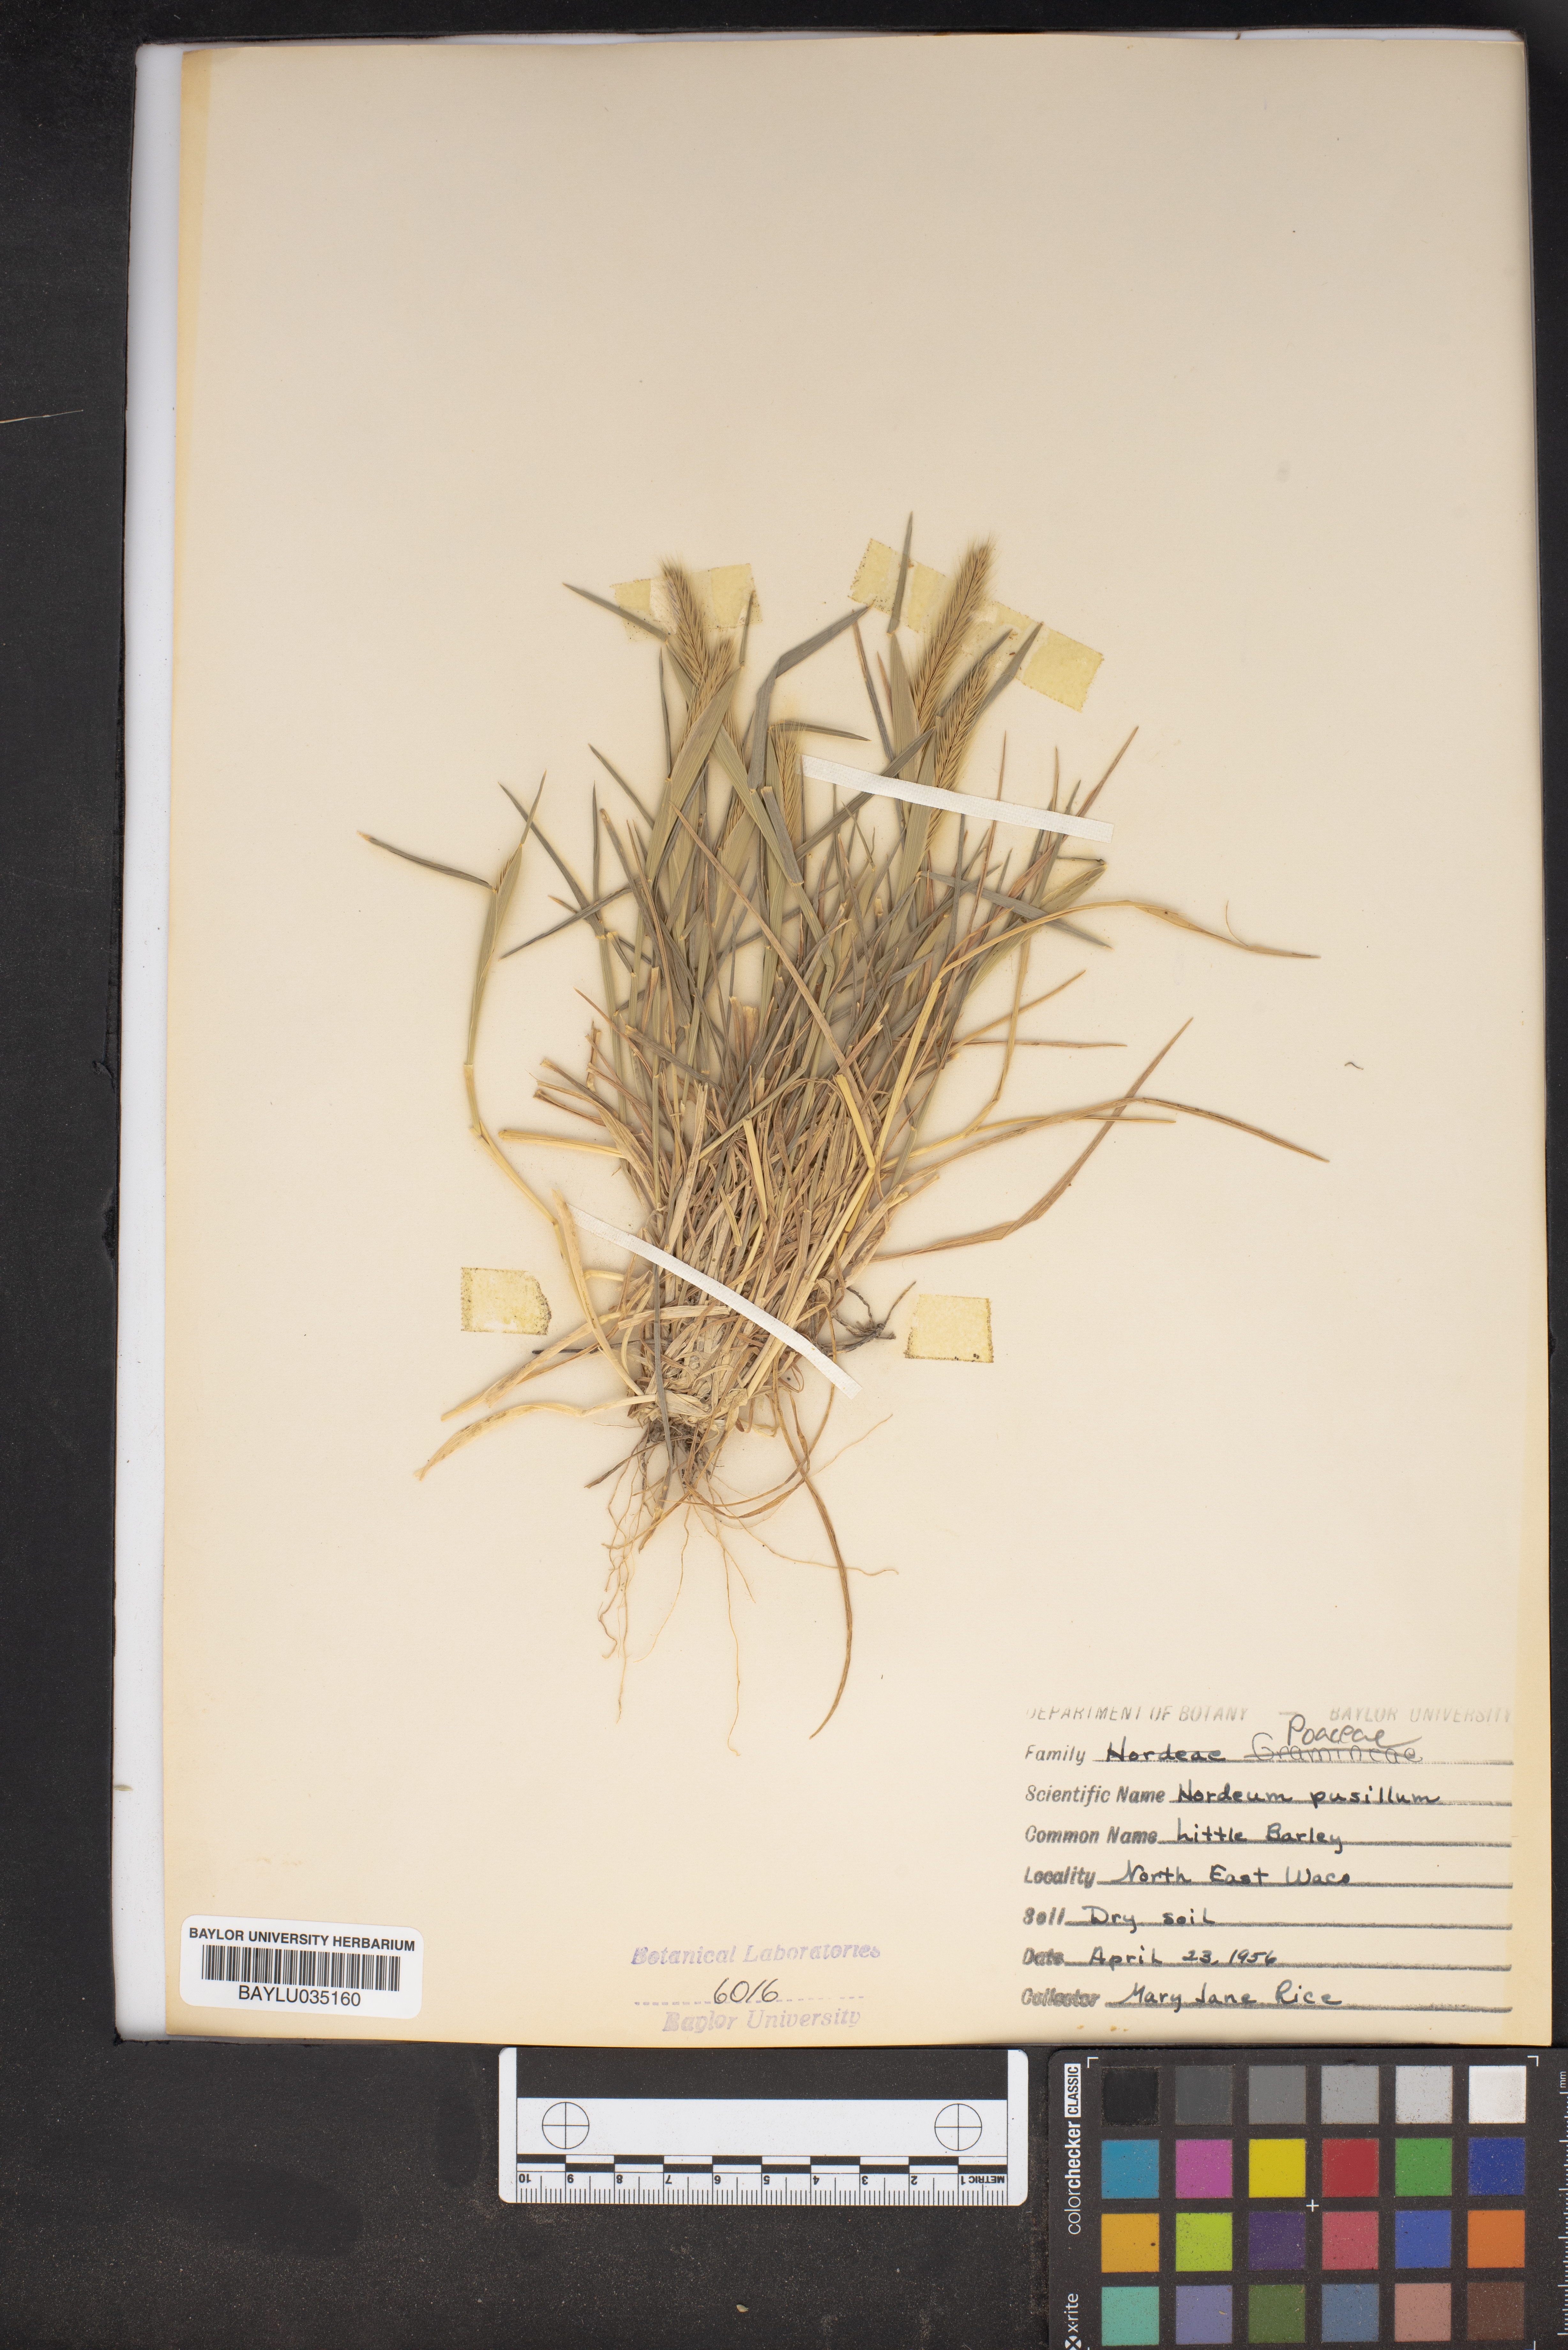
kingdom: Plantae
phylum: Tracheophyta
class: Liliopsida
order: Poales
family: Poaceae
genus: Hordeum
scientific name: Hordeum pusillum
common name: Little barley
